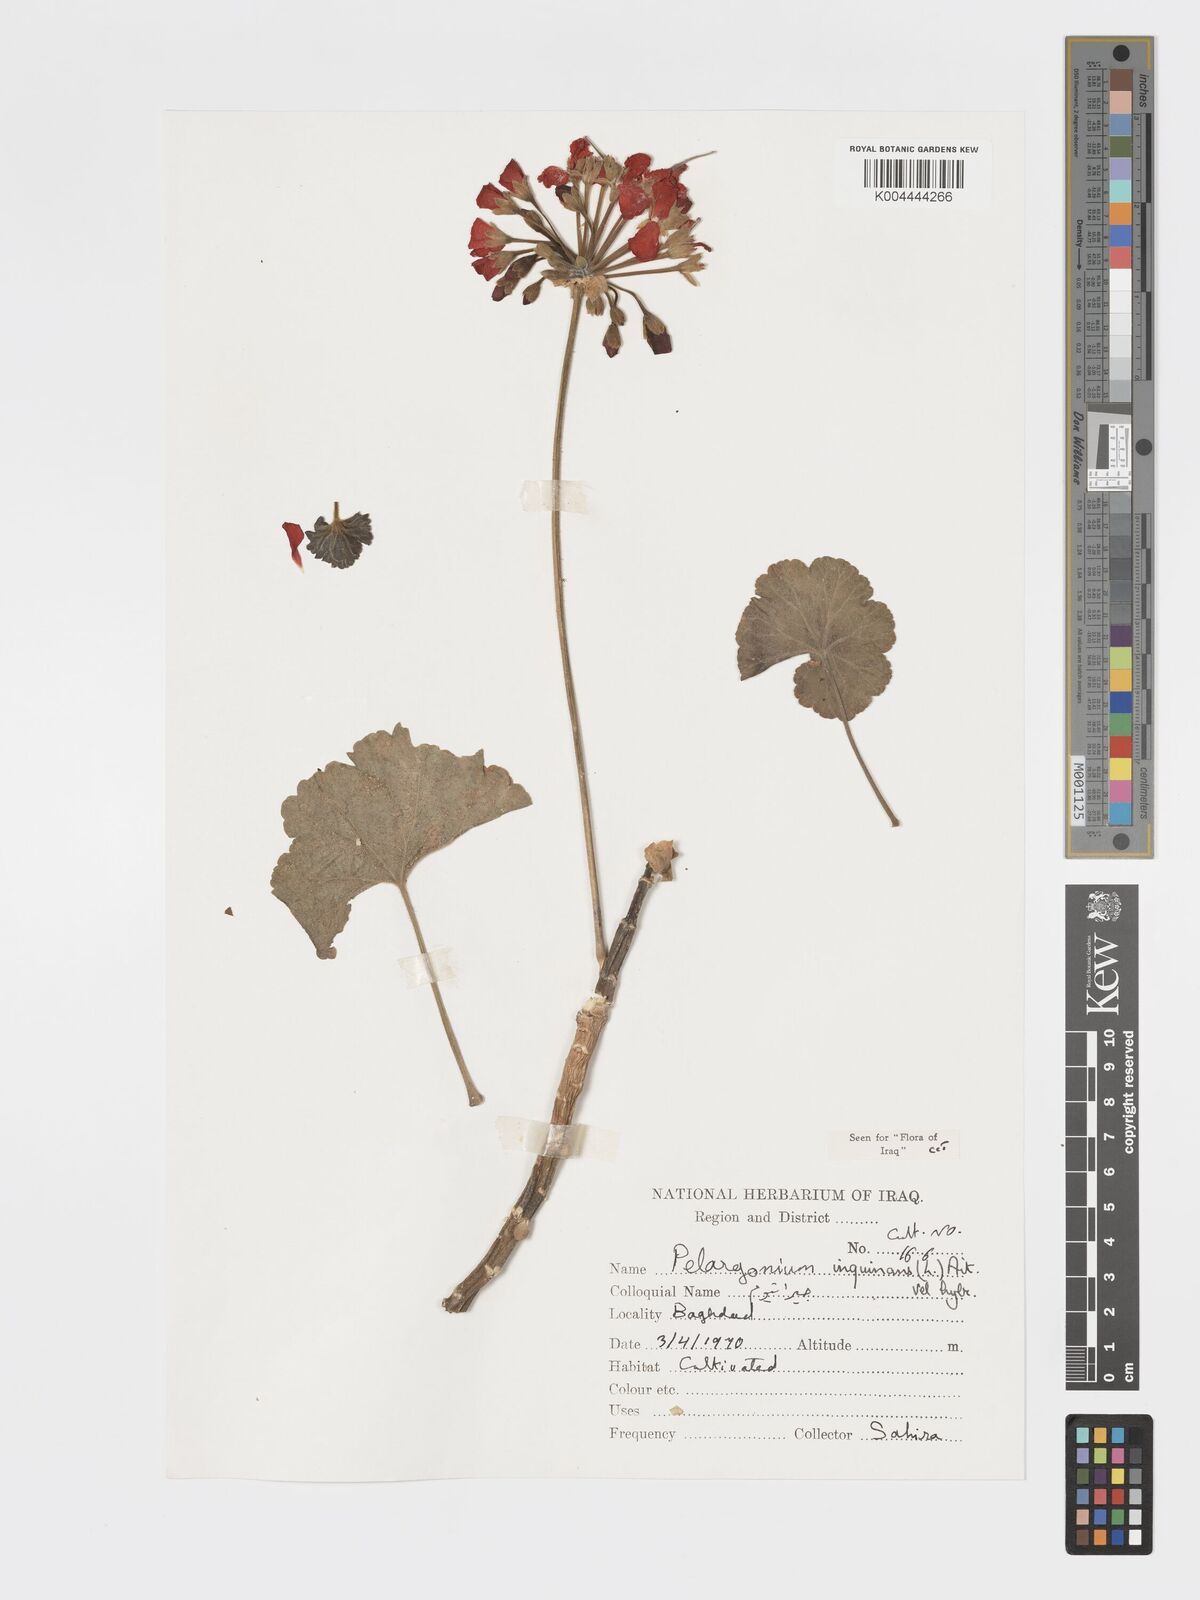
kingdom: Plantae
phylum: Tracheophyta
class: Magnoliopsida
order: Geraniales
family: Geraniaceae
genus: Pelargonium
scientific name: Pelargonium inquinans
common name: Scarlet geranium
